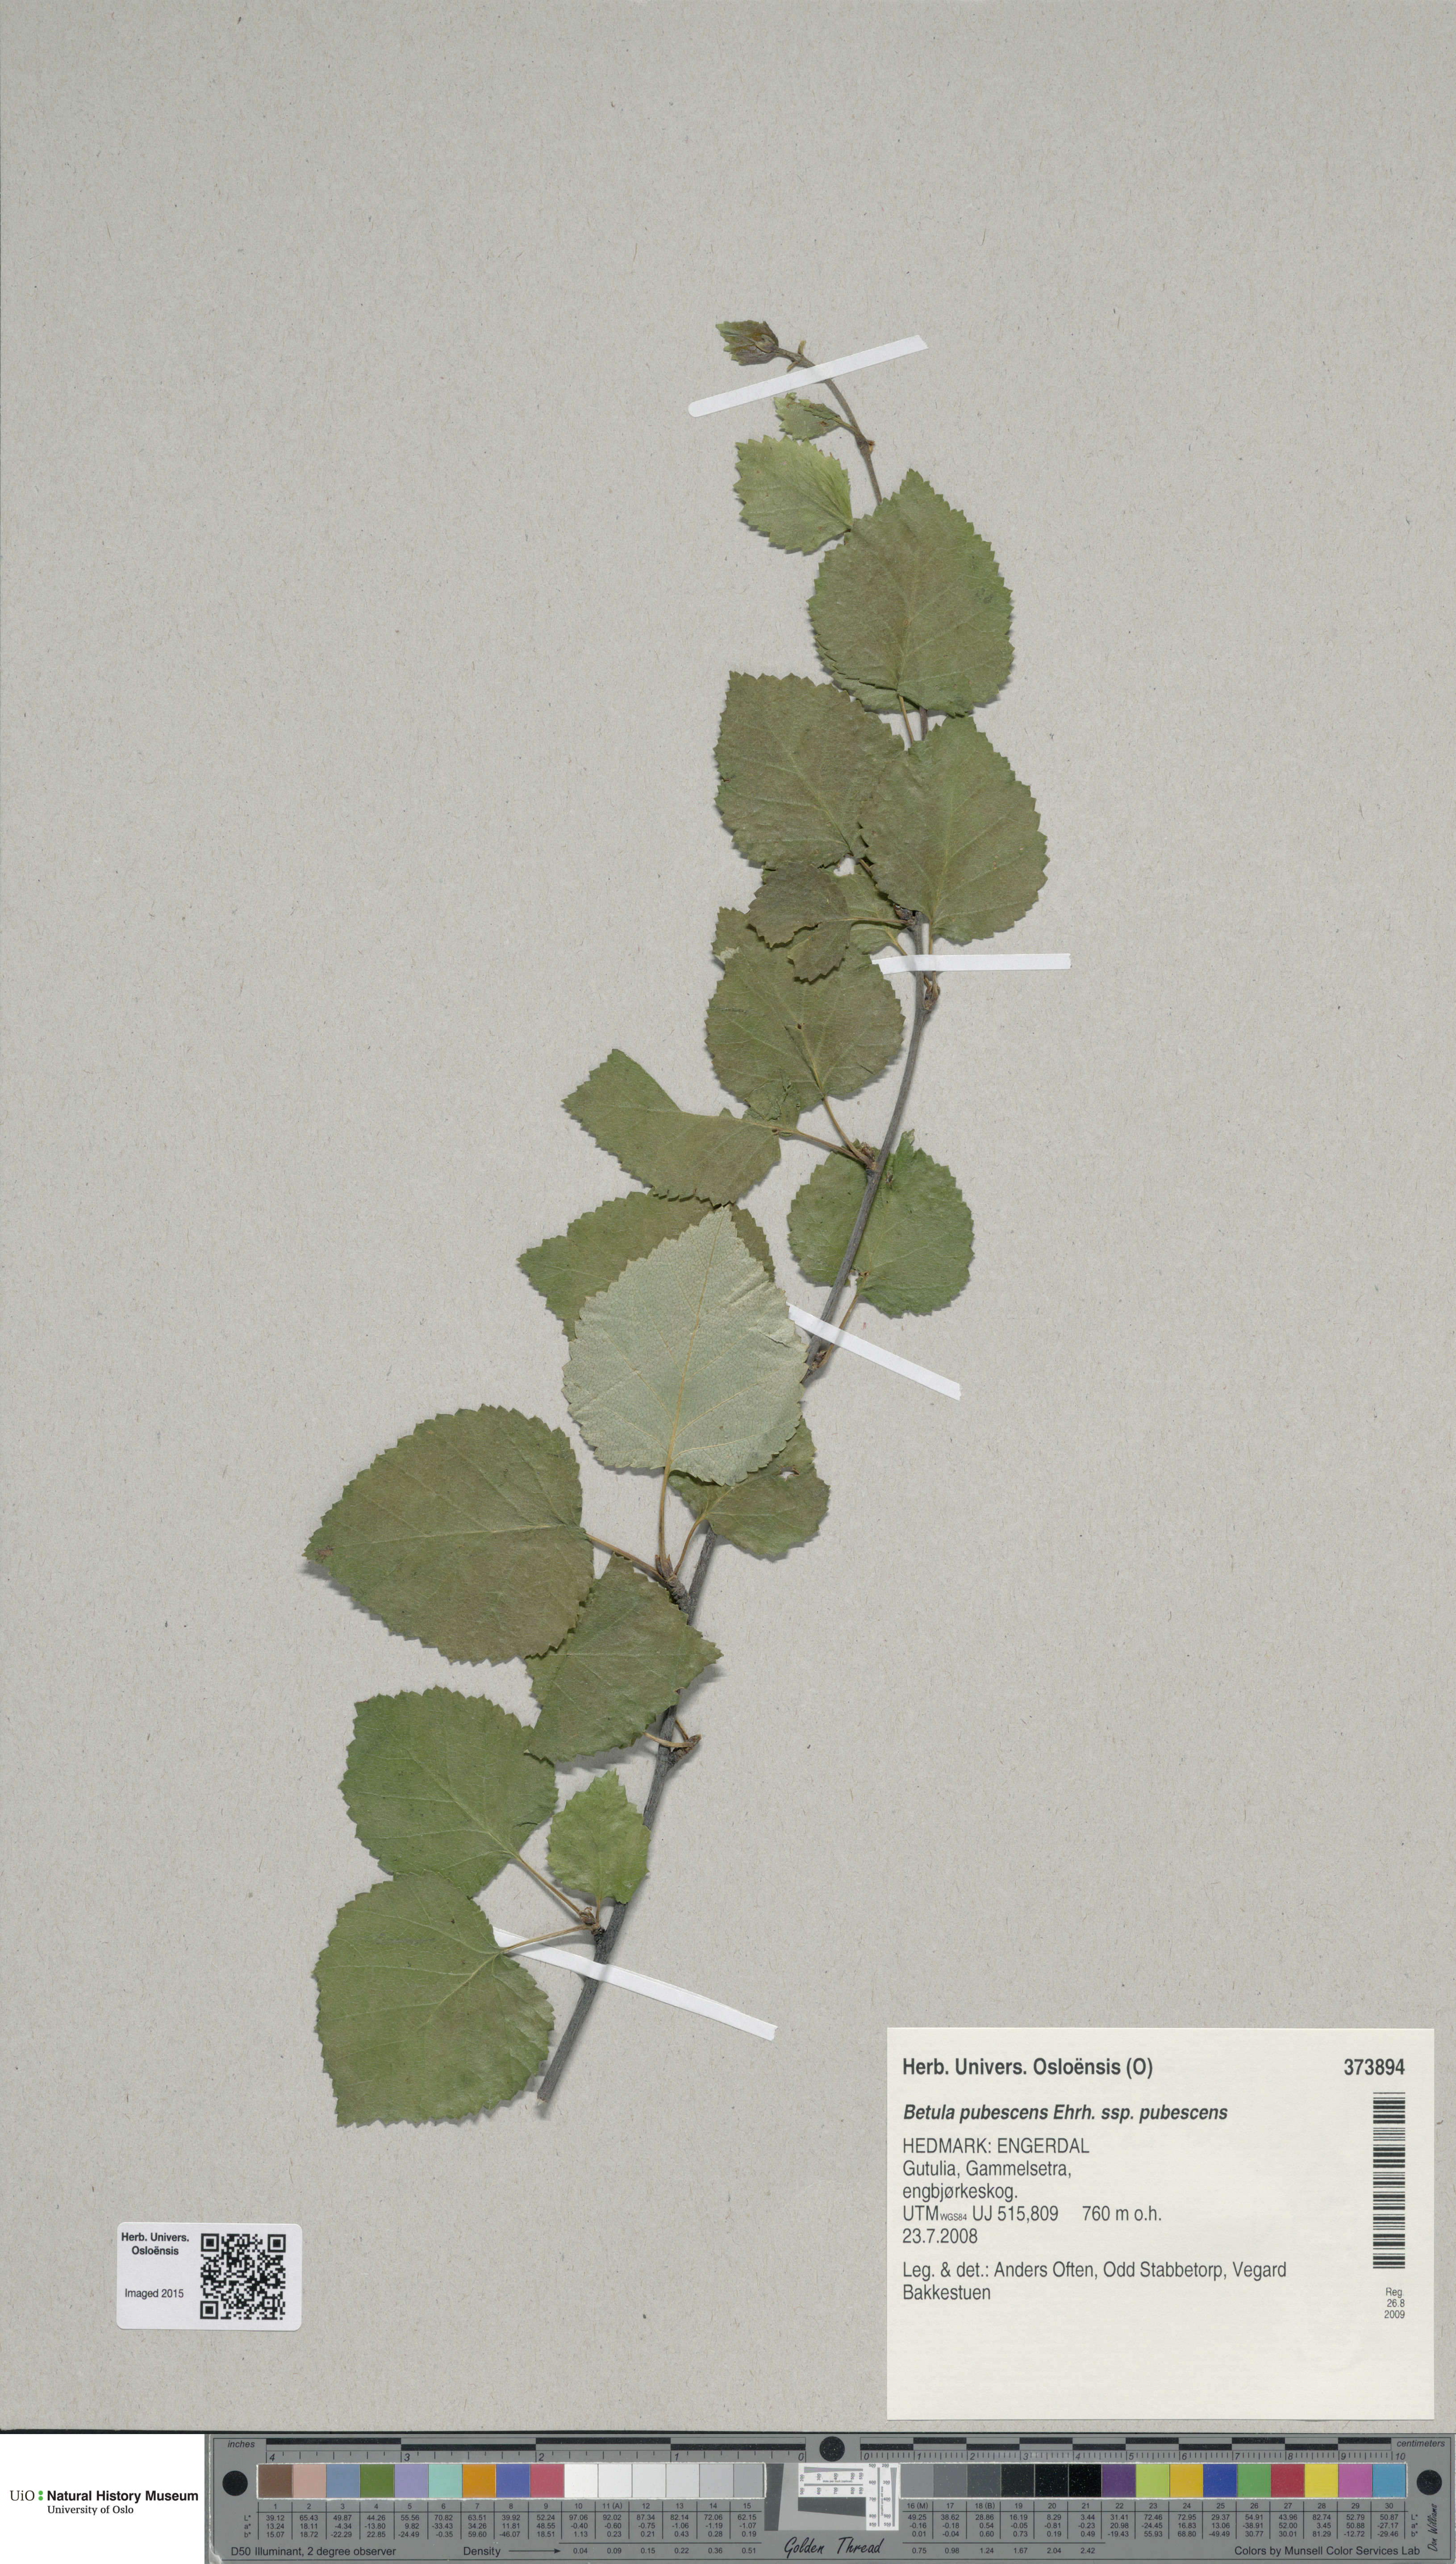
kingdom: Plantae
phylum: Tracheophyta
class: Magnoliopsida
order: Fagales
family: Betulaceae
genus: Betula
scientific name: Betula pubescens
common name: Downy birch
